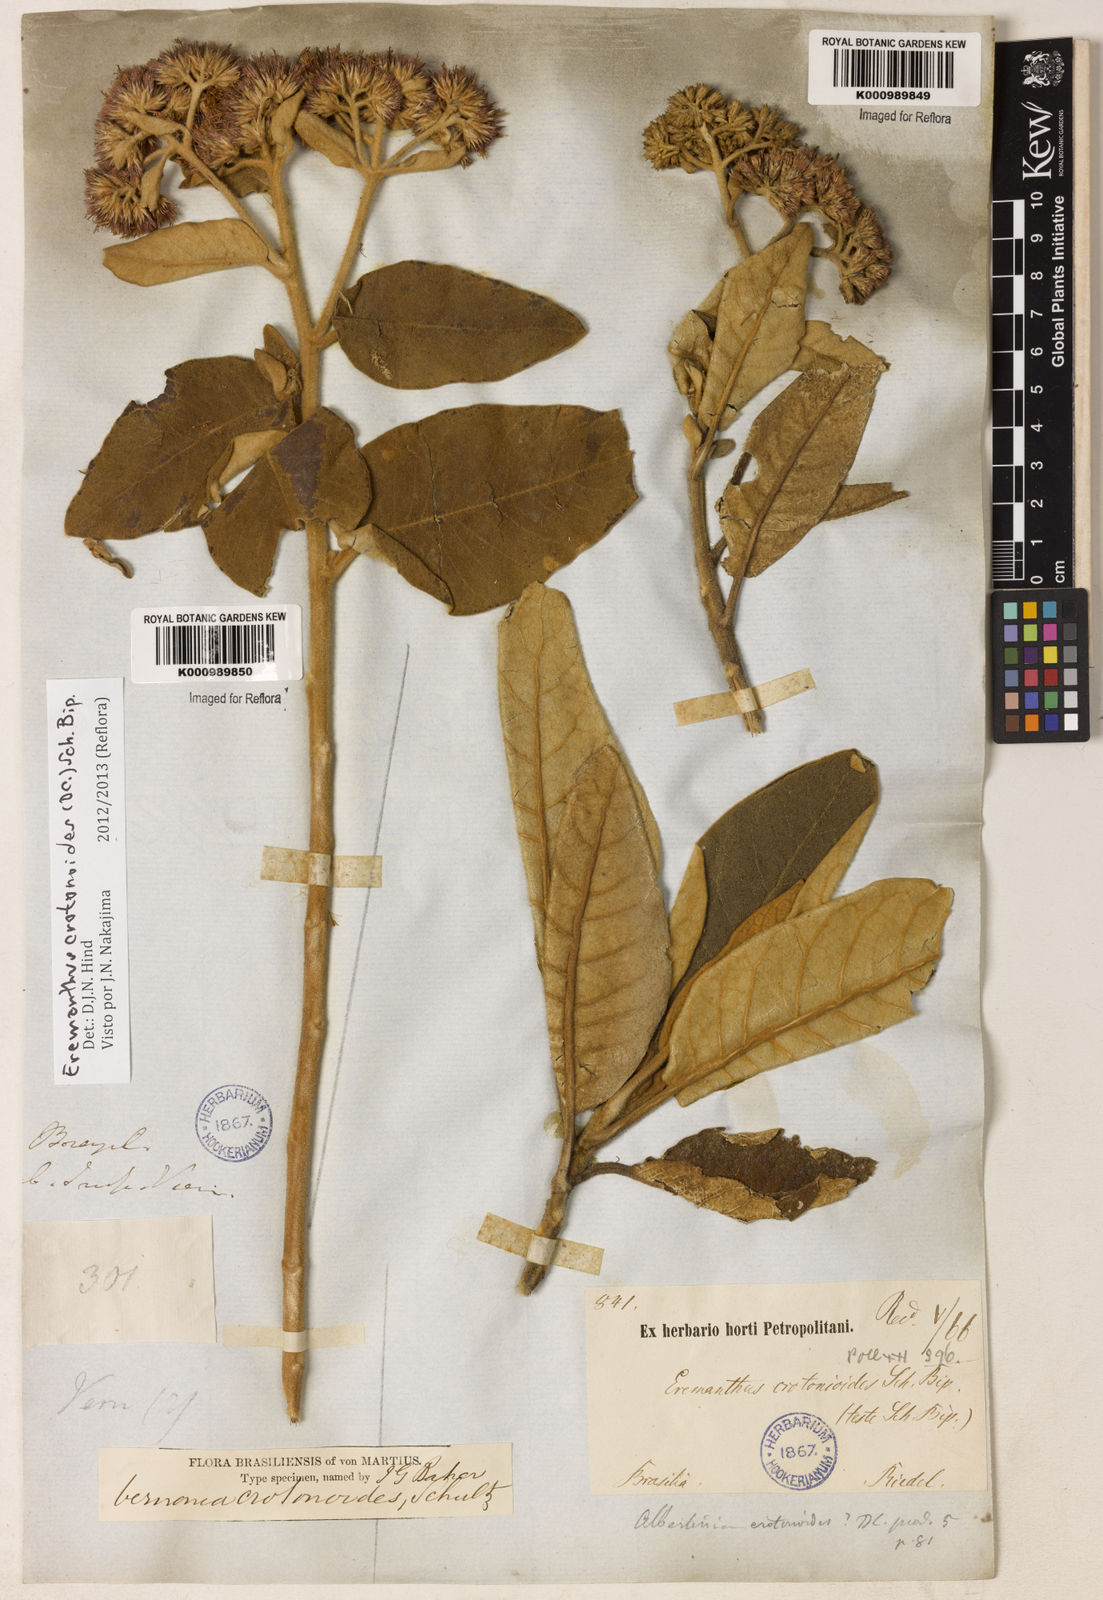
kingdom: Plantae
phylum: Tracheophyta
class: Magnoliopsida
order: Asterales
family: Asteraceae
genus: Eremanthus
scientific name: Eremanthus crotonoides
